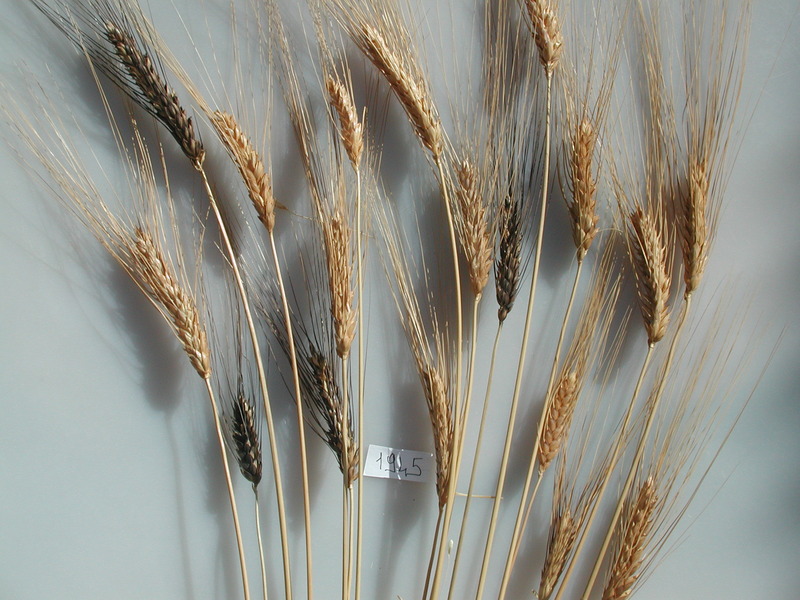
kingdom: Plantae
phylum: Tracheophyta
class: Liliopsida
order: Poales
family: Poaceae
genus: Triticum
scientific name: Triticum turgidum
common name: Wheat
